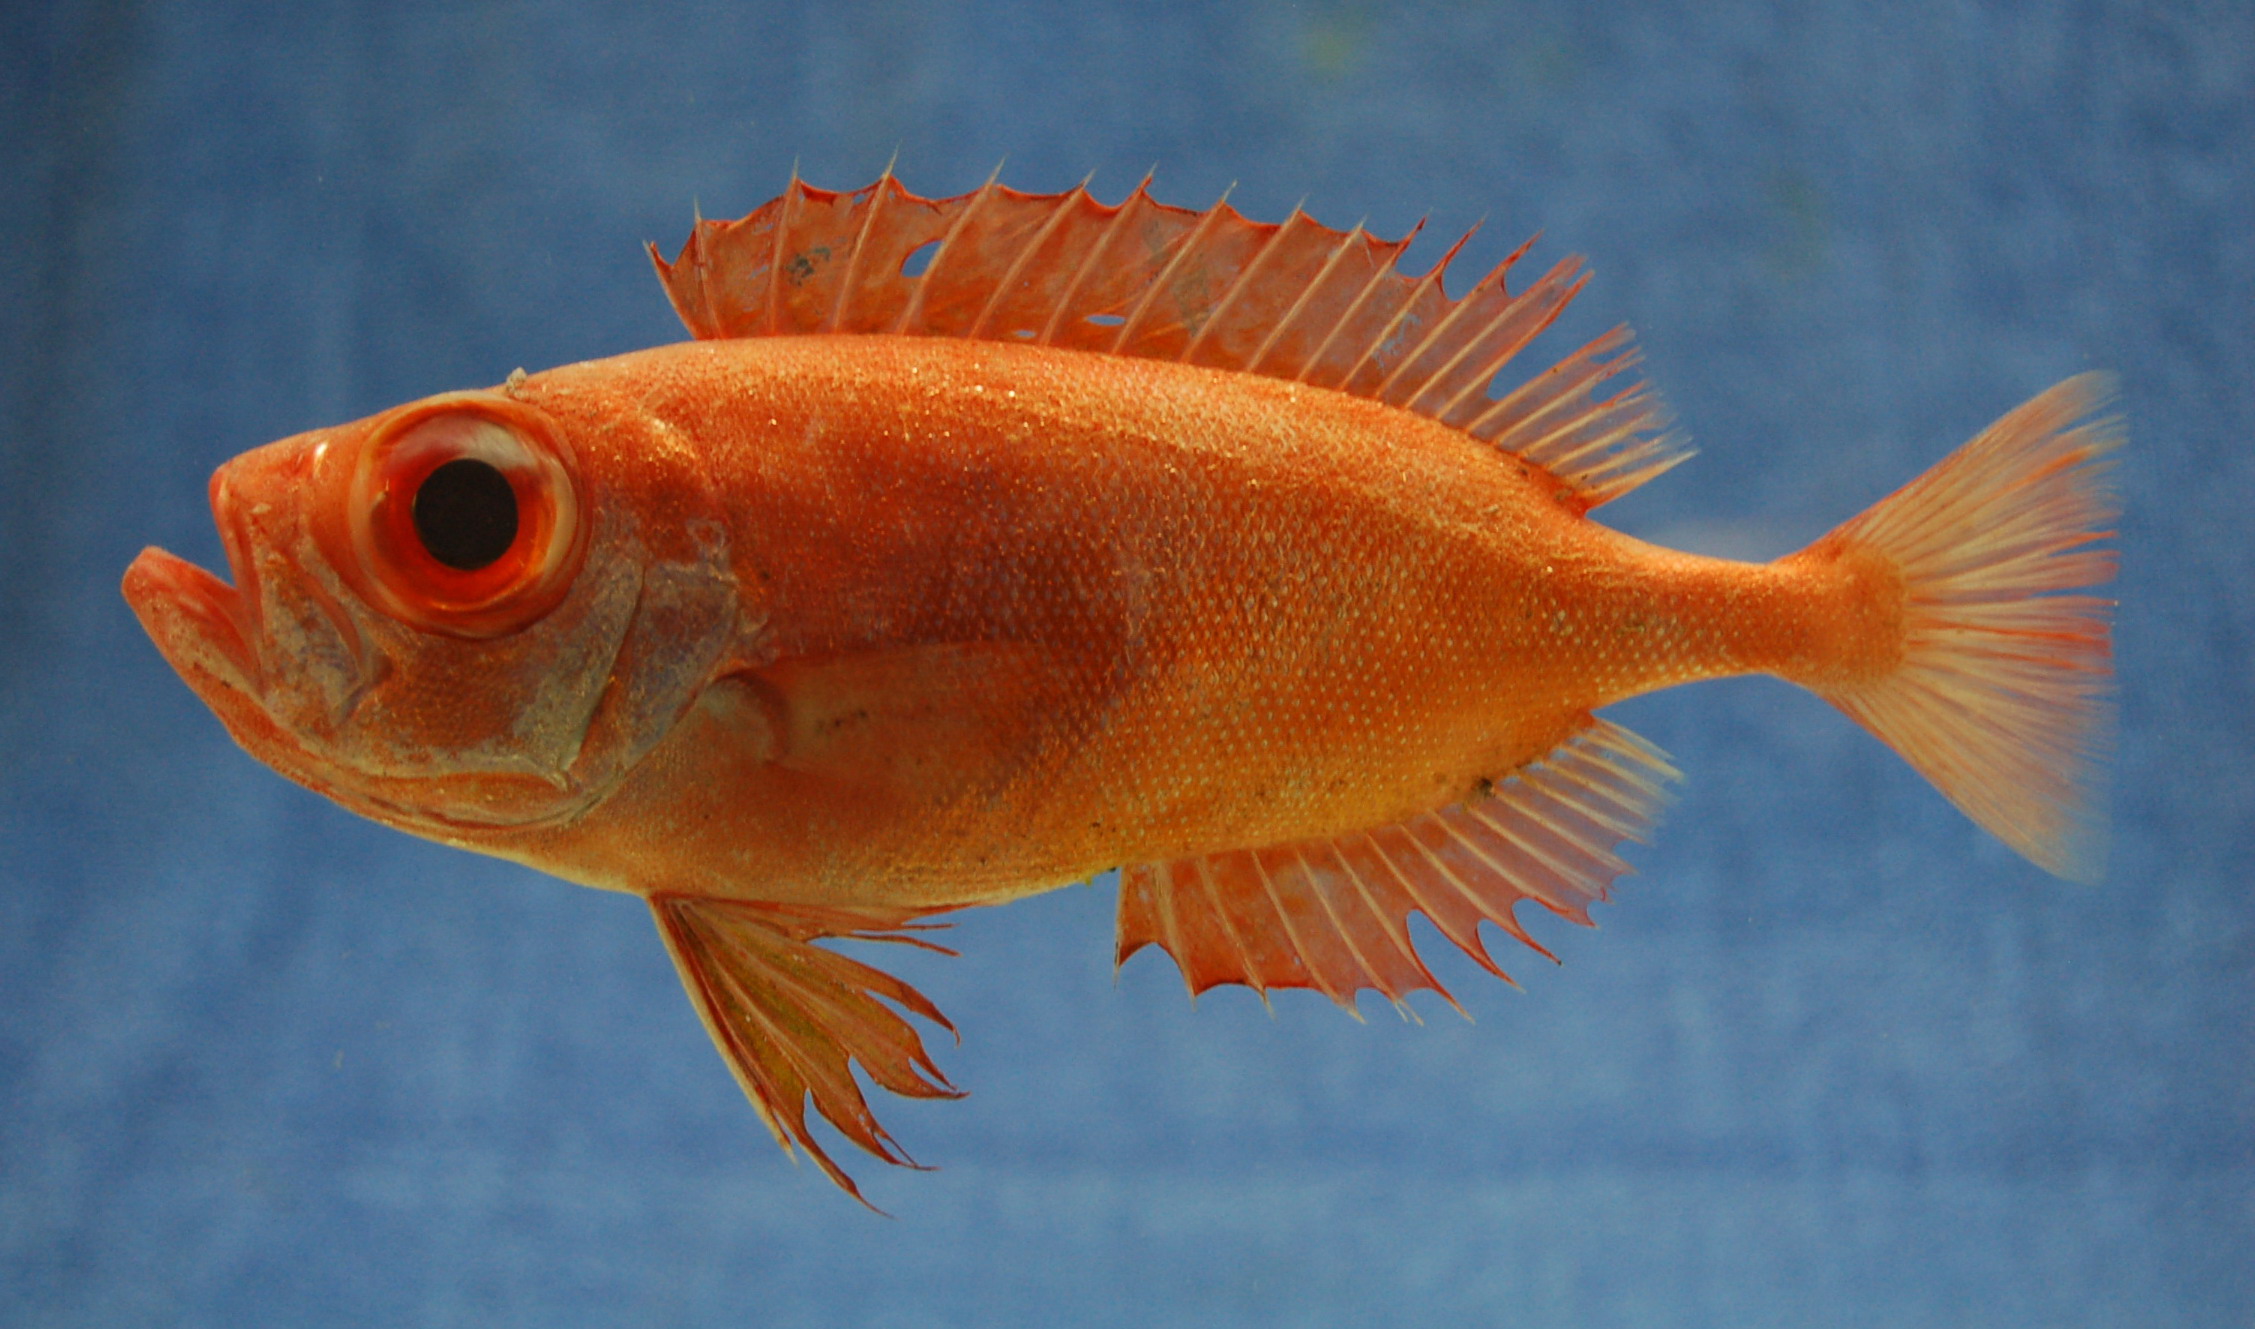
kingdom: Animalia
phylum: Chordata
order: Perciformes
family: Priacanthidae
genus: Priacanthus
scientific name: Priacanthus fitchi
